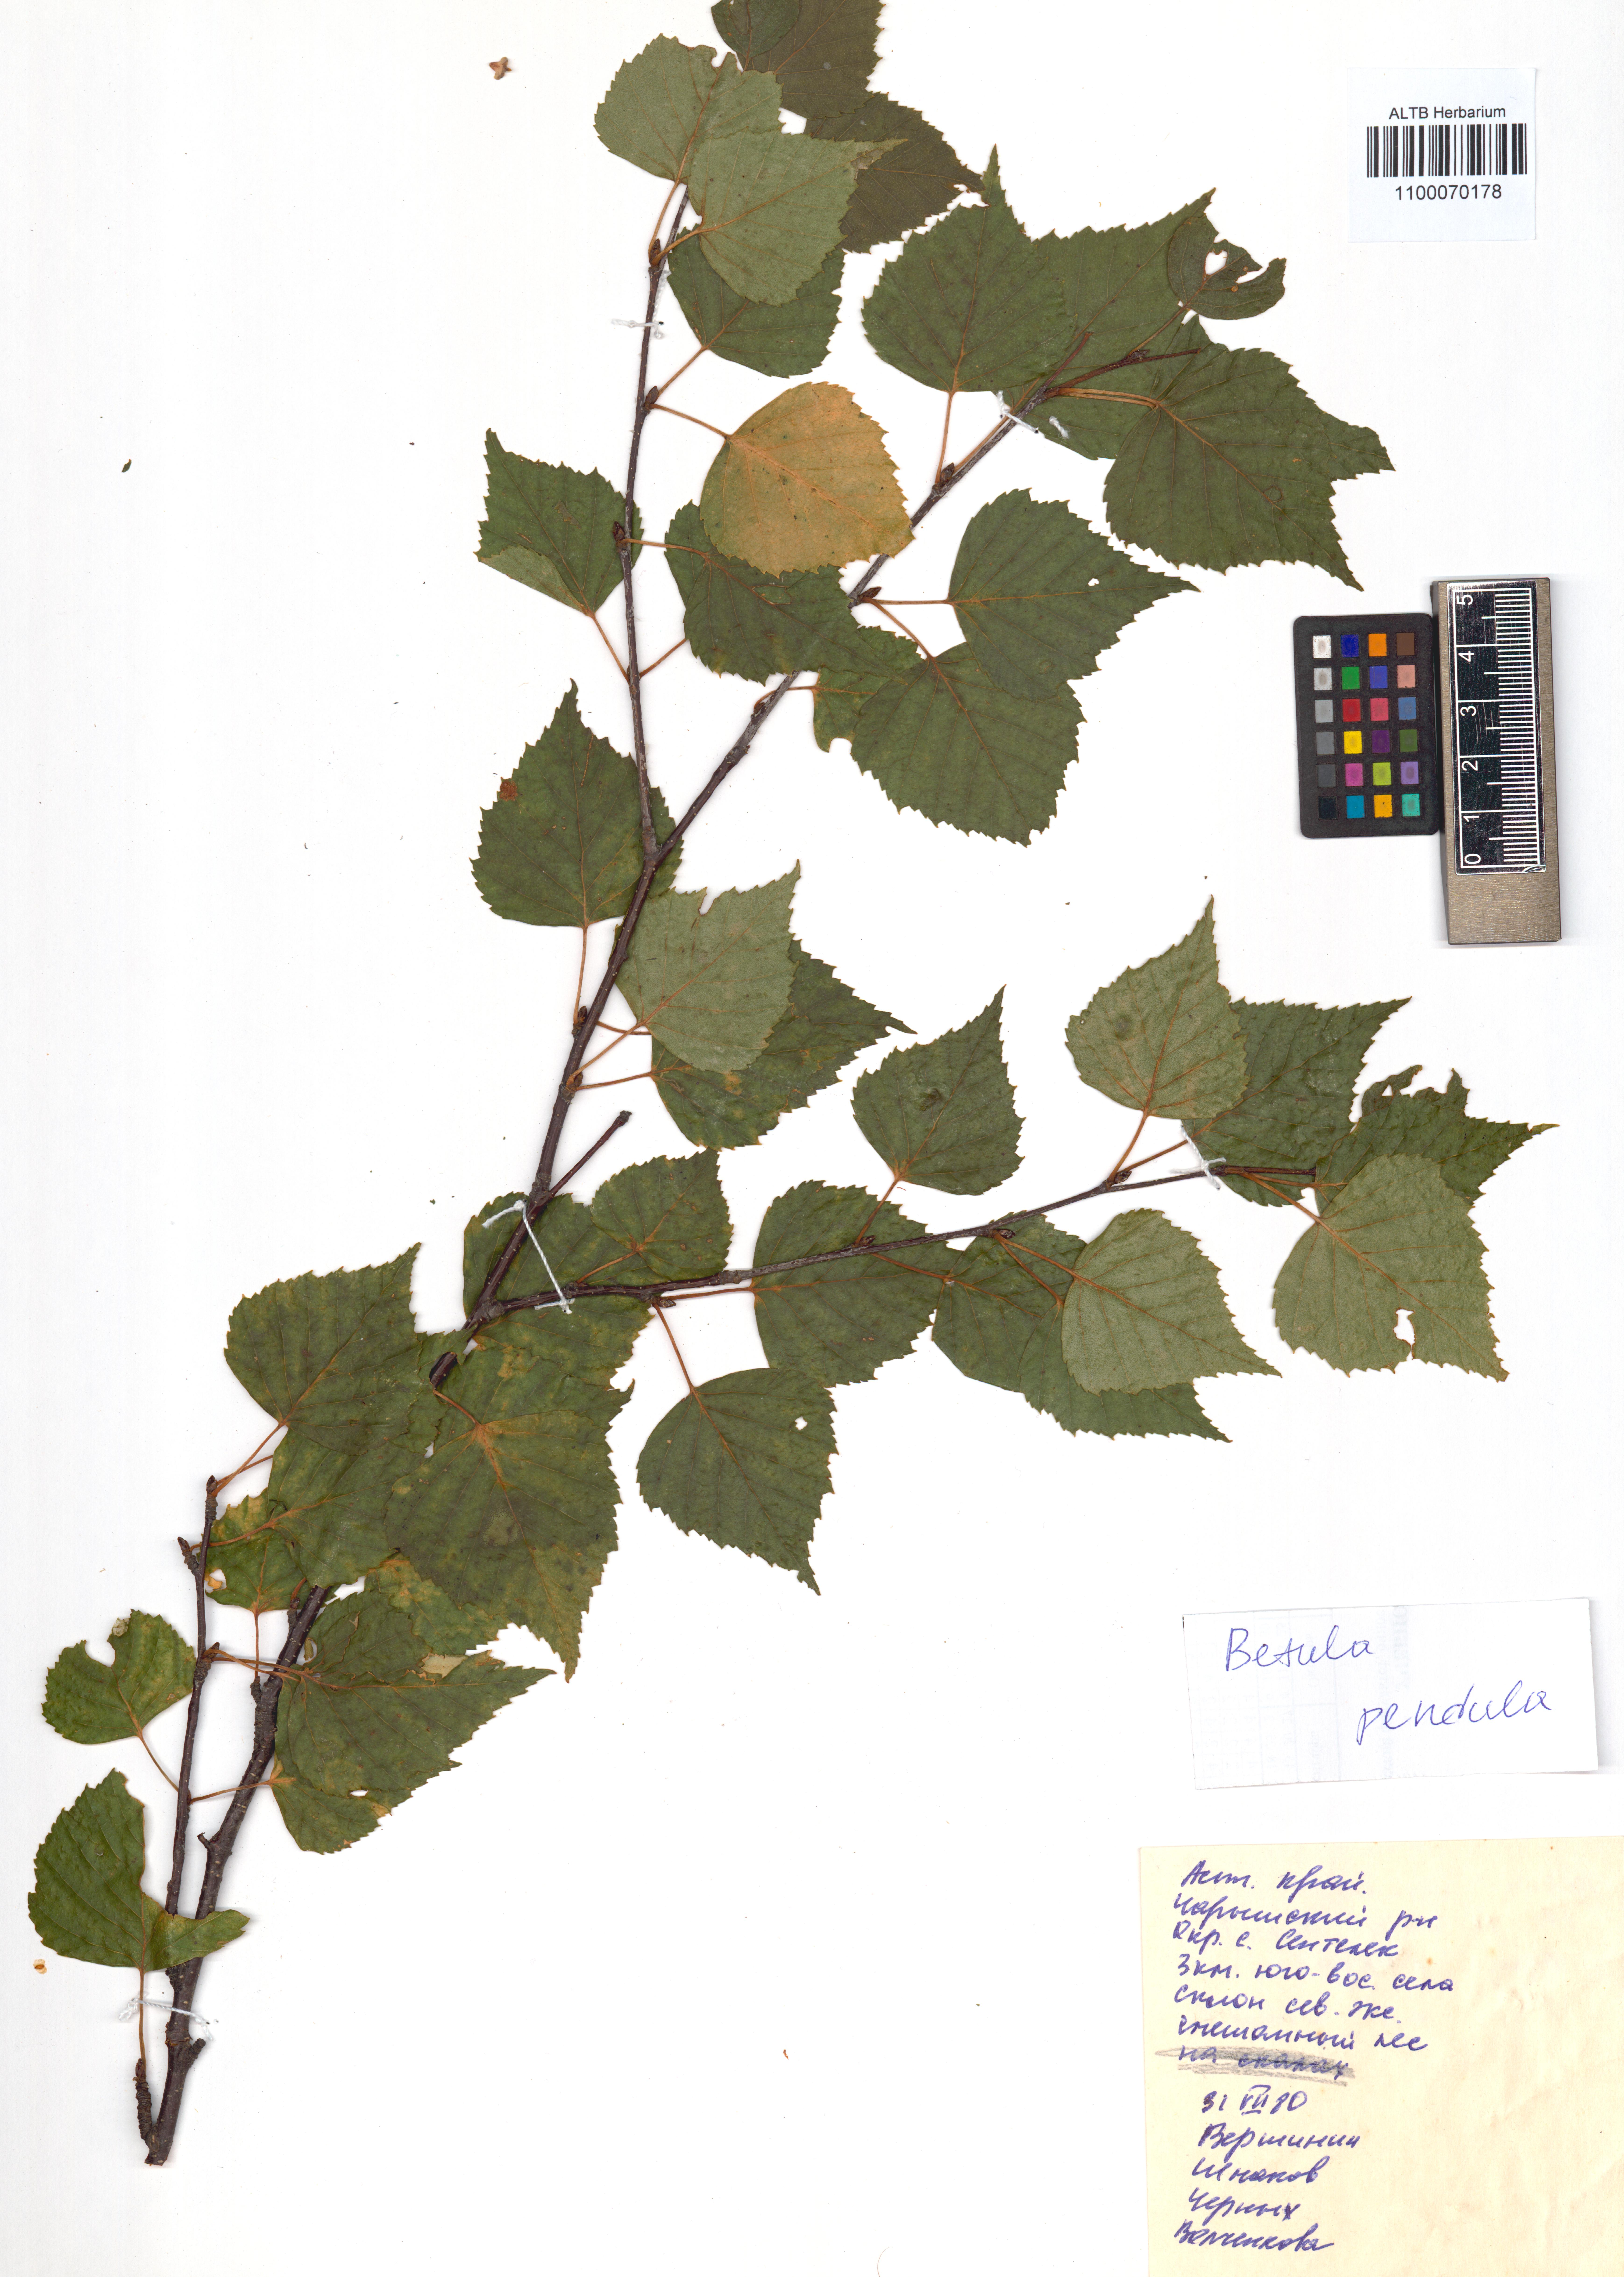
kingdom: Plantae
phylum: Tracheophyta
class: Magnoliopsida
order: Fagales
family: Betulaceae
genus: Betula
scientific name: Betula pendula
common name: Silver birch
